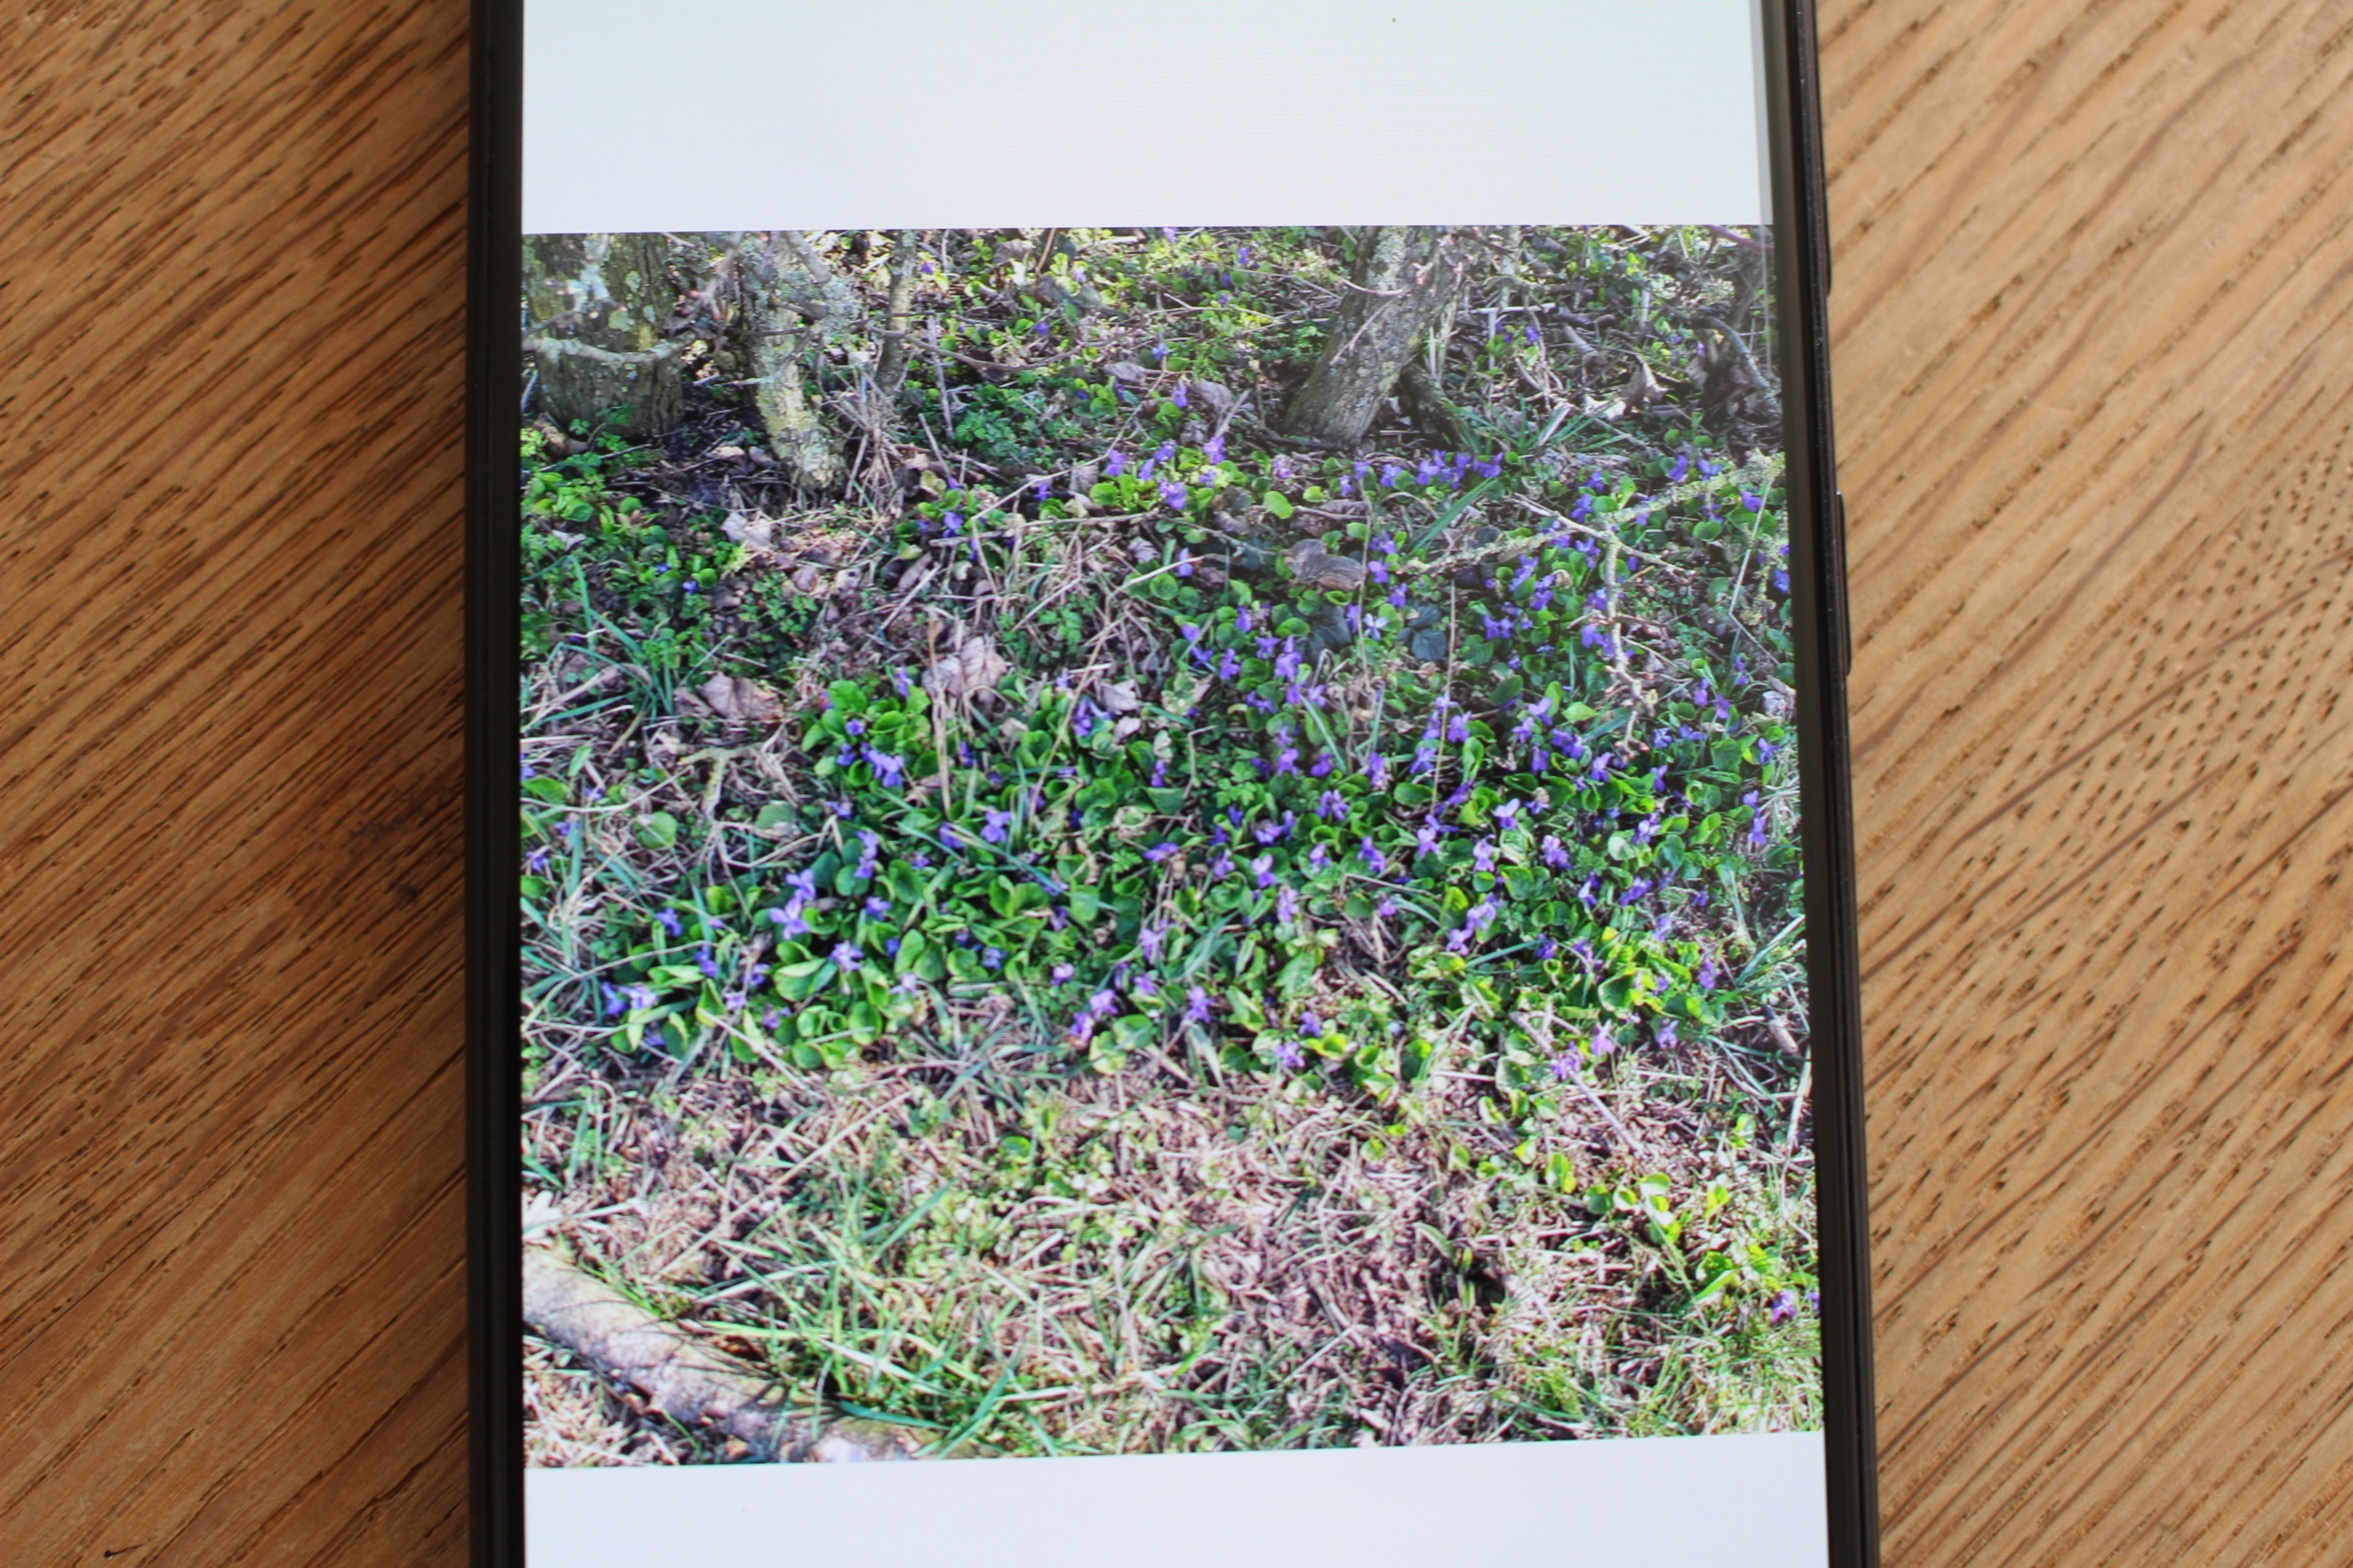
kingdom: Plantae
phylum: Tracheophyta
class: Magnoliopsida
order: Malpighiales
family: Violaceae
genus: Viola
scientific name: Viola odorata
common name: Marts-viol
